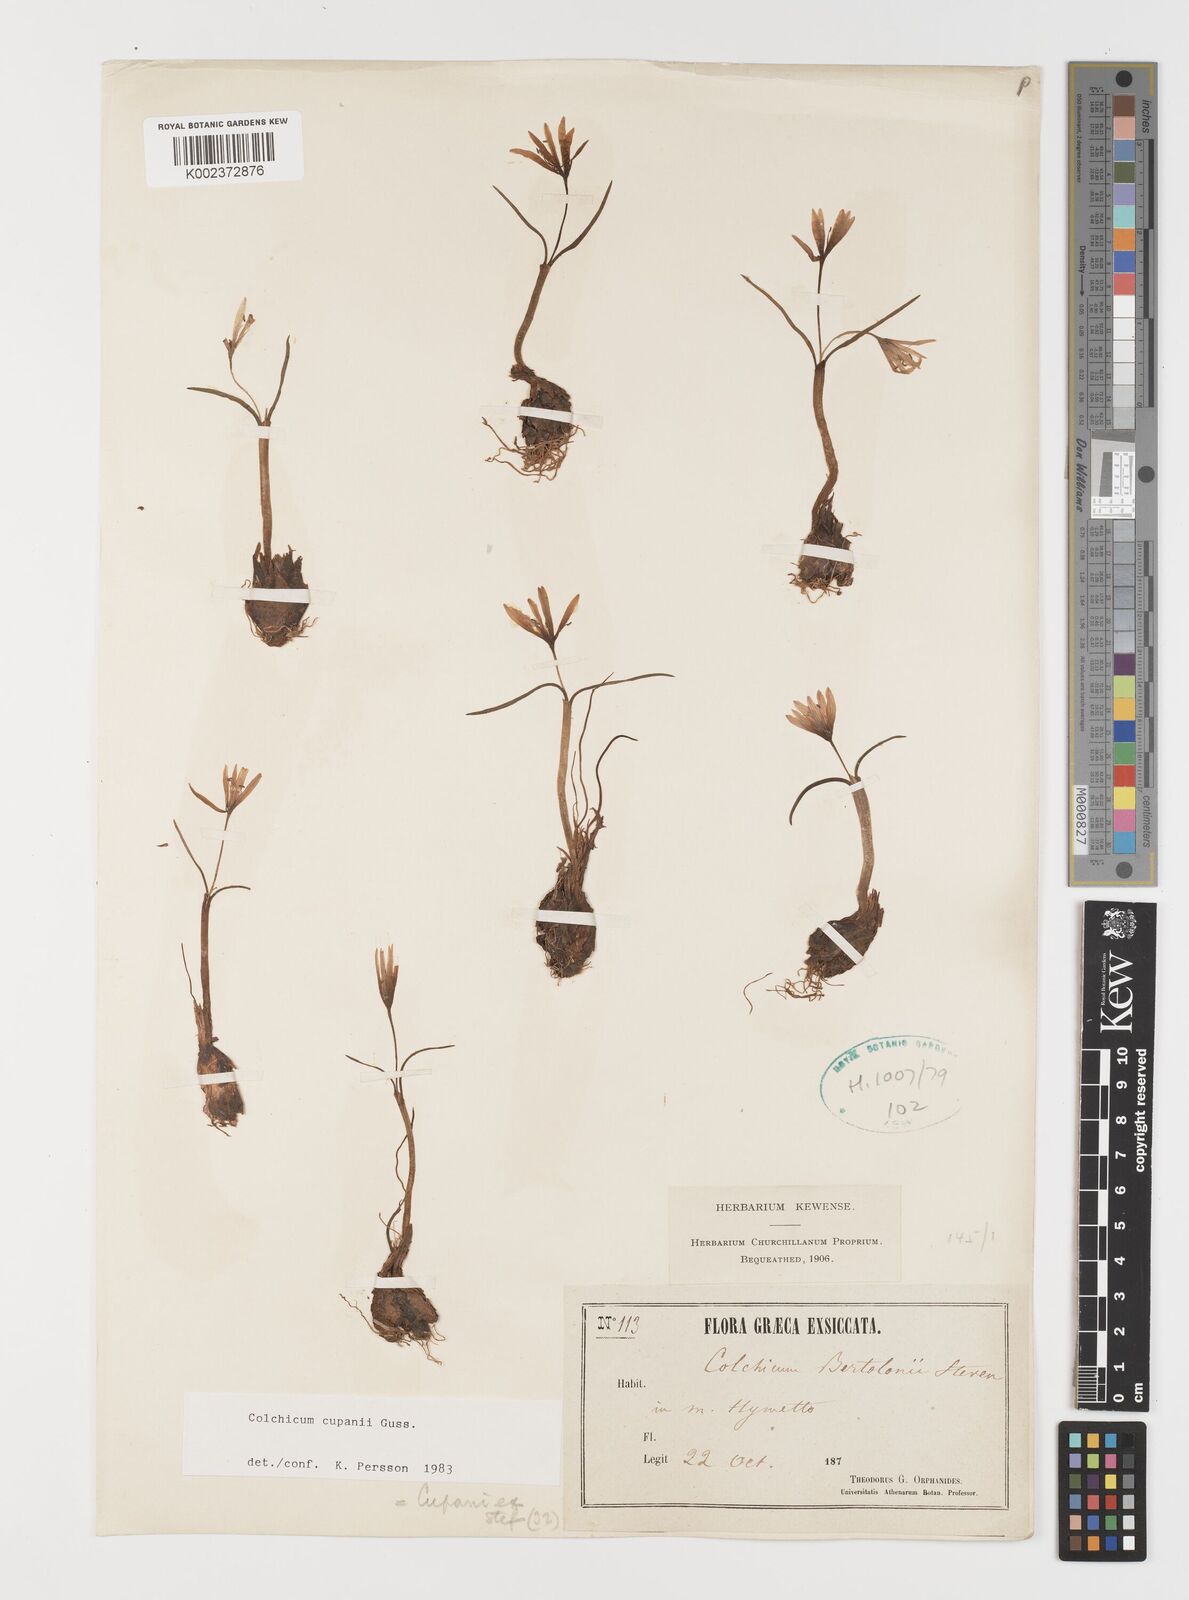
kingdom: Plantae
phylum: Tracheophyta
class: Liliopsida
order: Liliales
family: Colchicaceae
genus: Colchicum
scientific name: Colchicum cupanii
